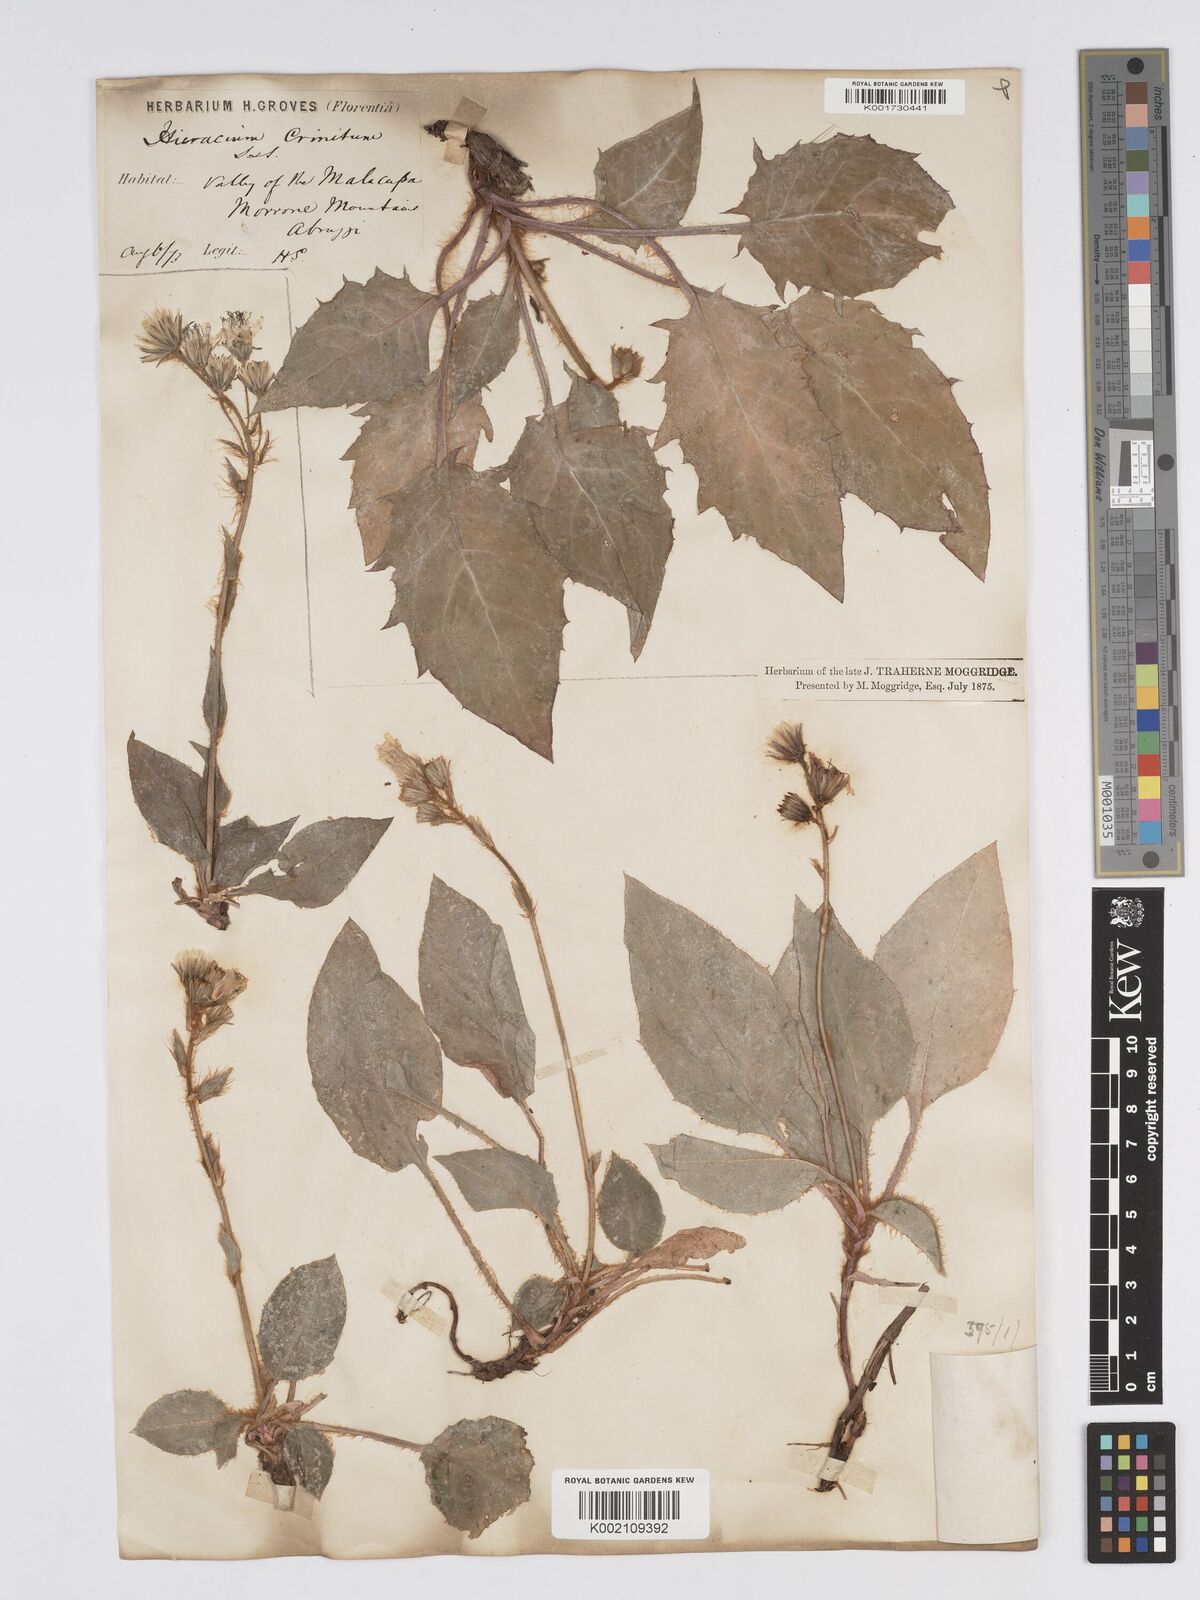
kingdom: Plantae
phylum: Tracheophyta
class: Magnoliopsida
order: Asterales
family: Asteraceae
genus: Hieracium
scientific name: Hieracium racemosum
